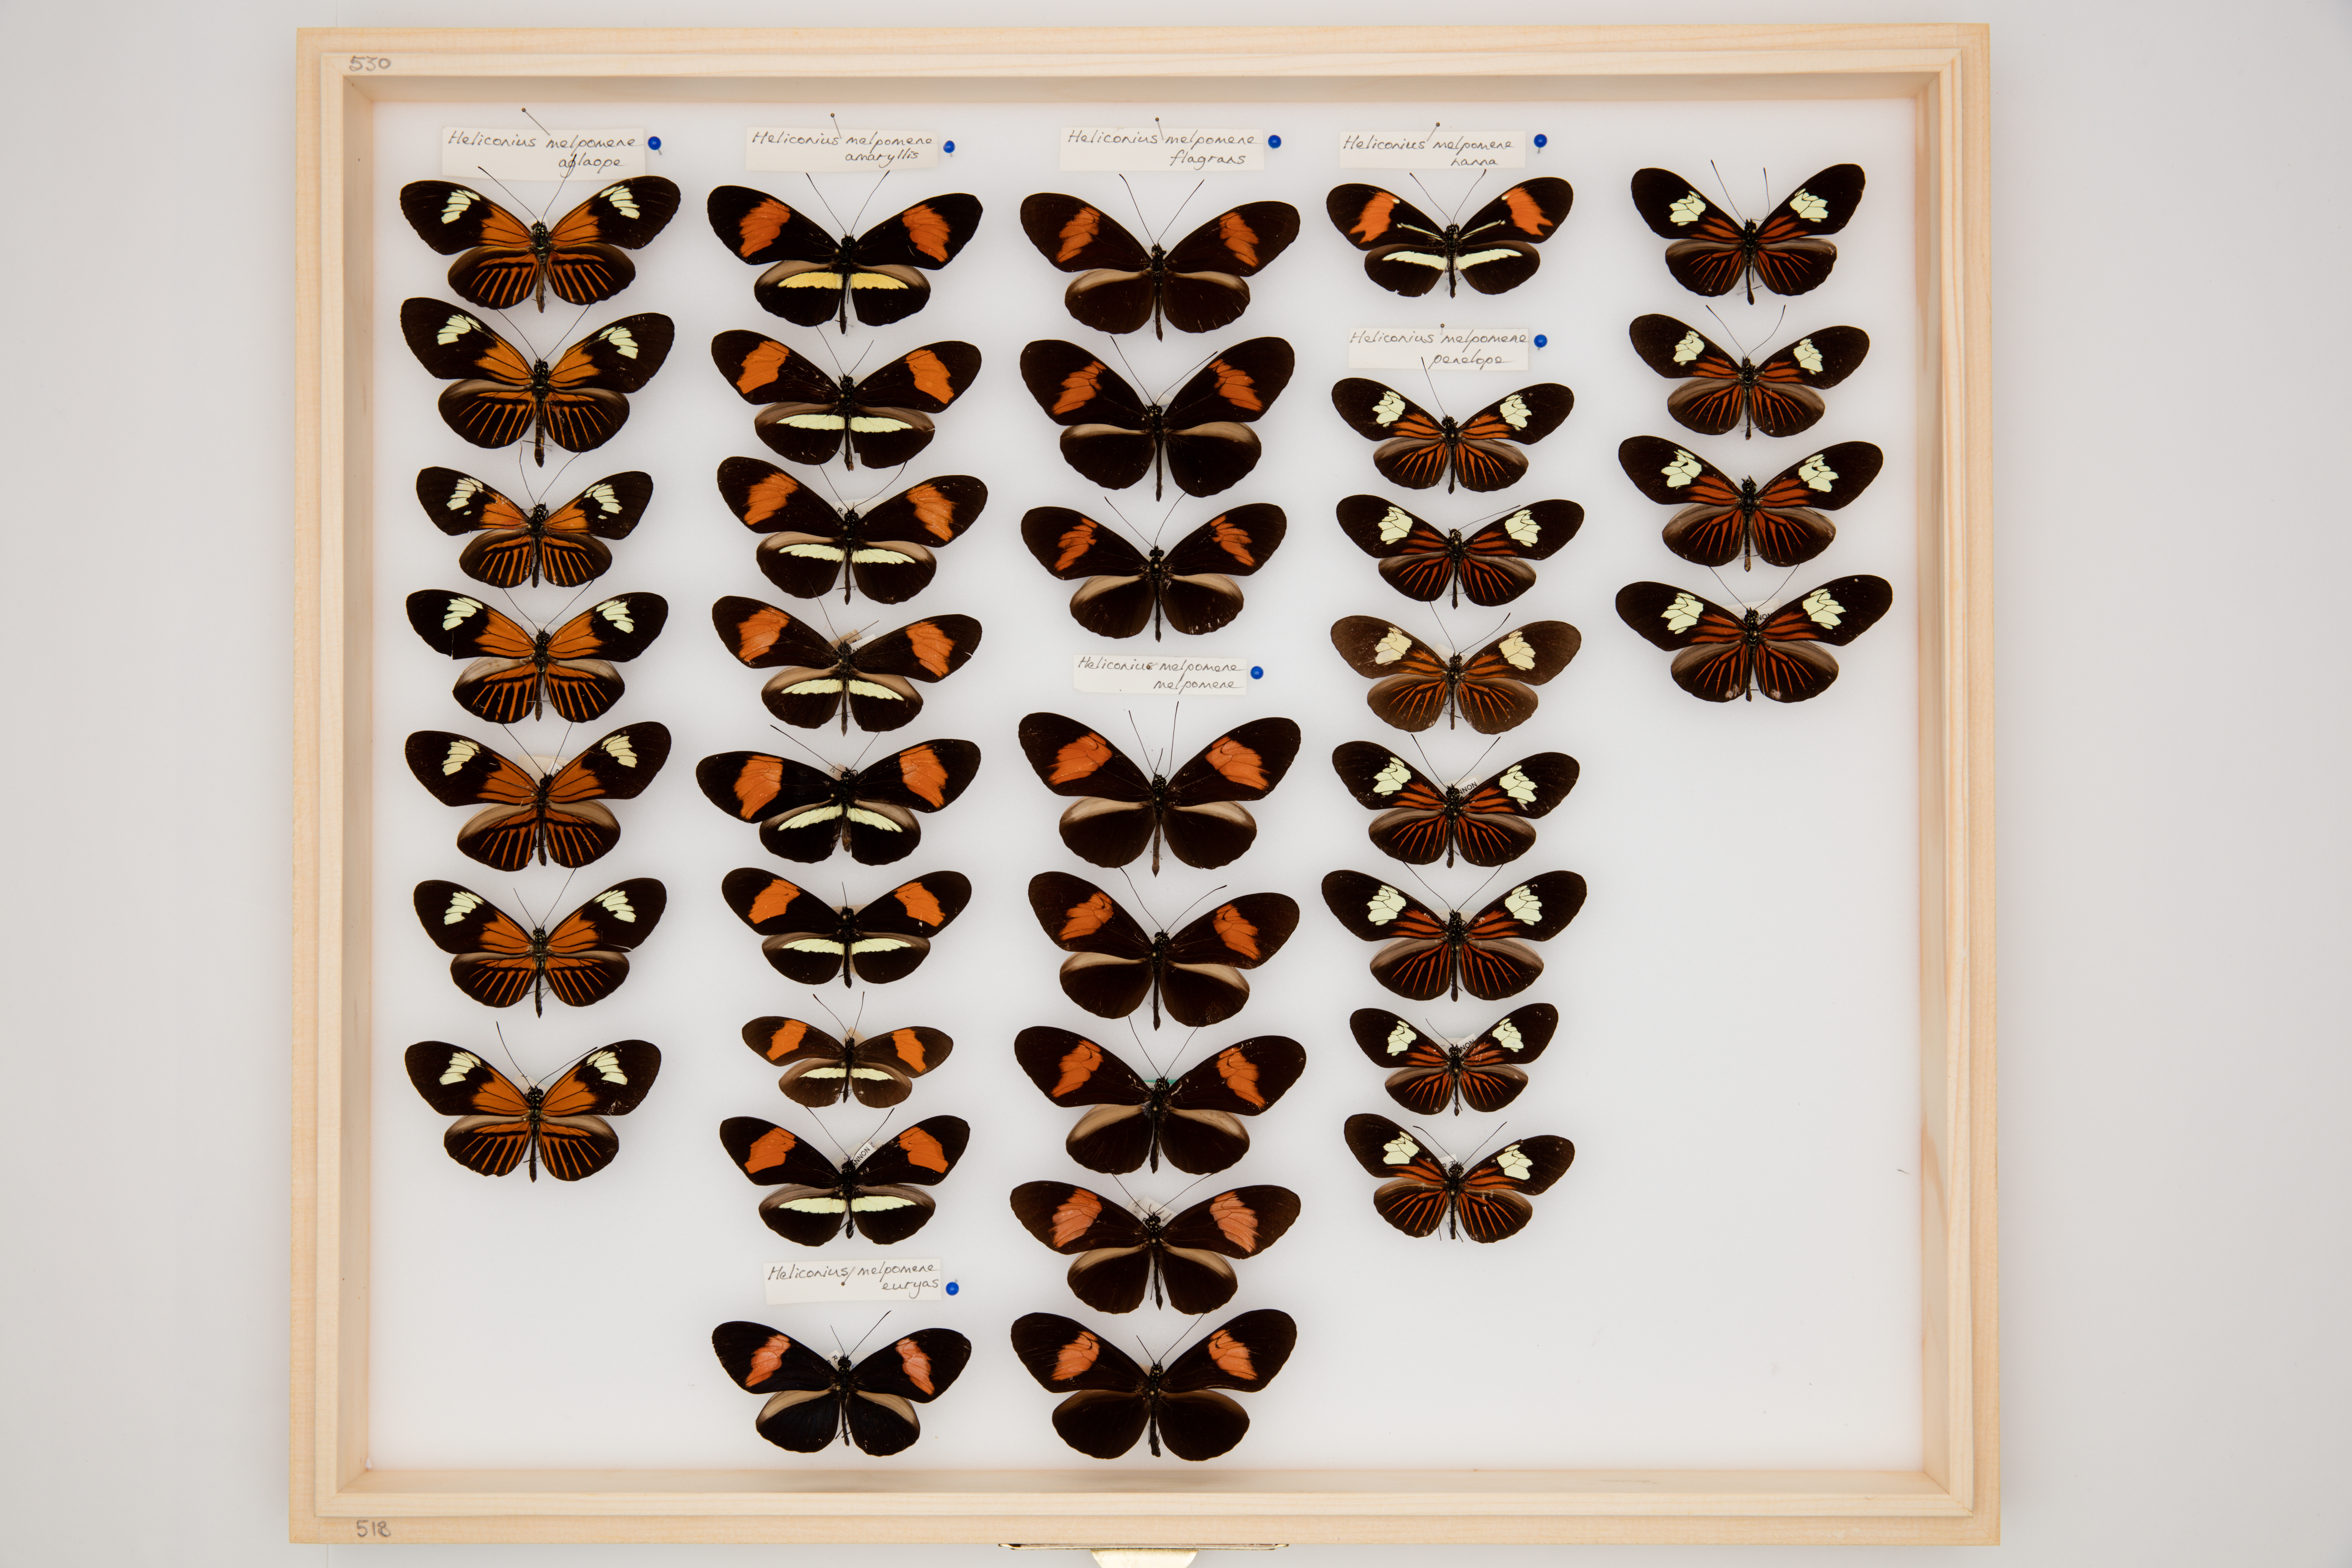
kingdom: Animalia
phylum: Arthropoda
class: Insecta
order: Lepidoptera
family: Nymphalidae
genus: Heliconius
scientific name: Heliconius melpomene
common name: Postman
